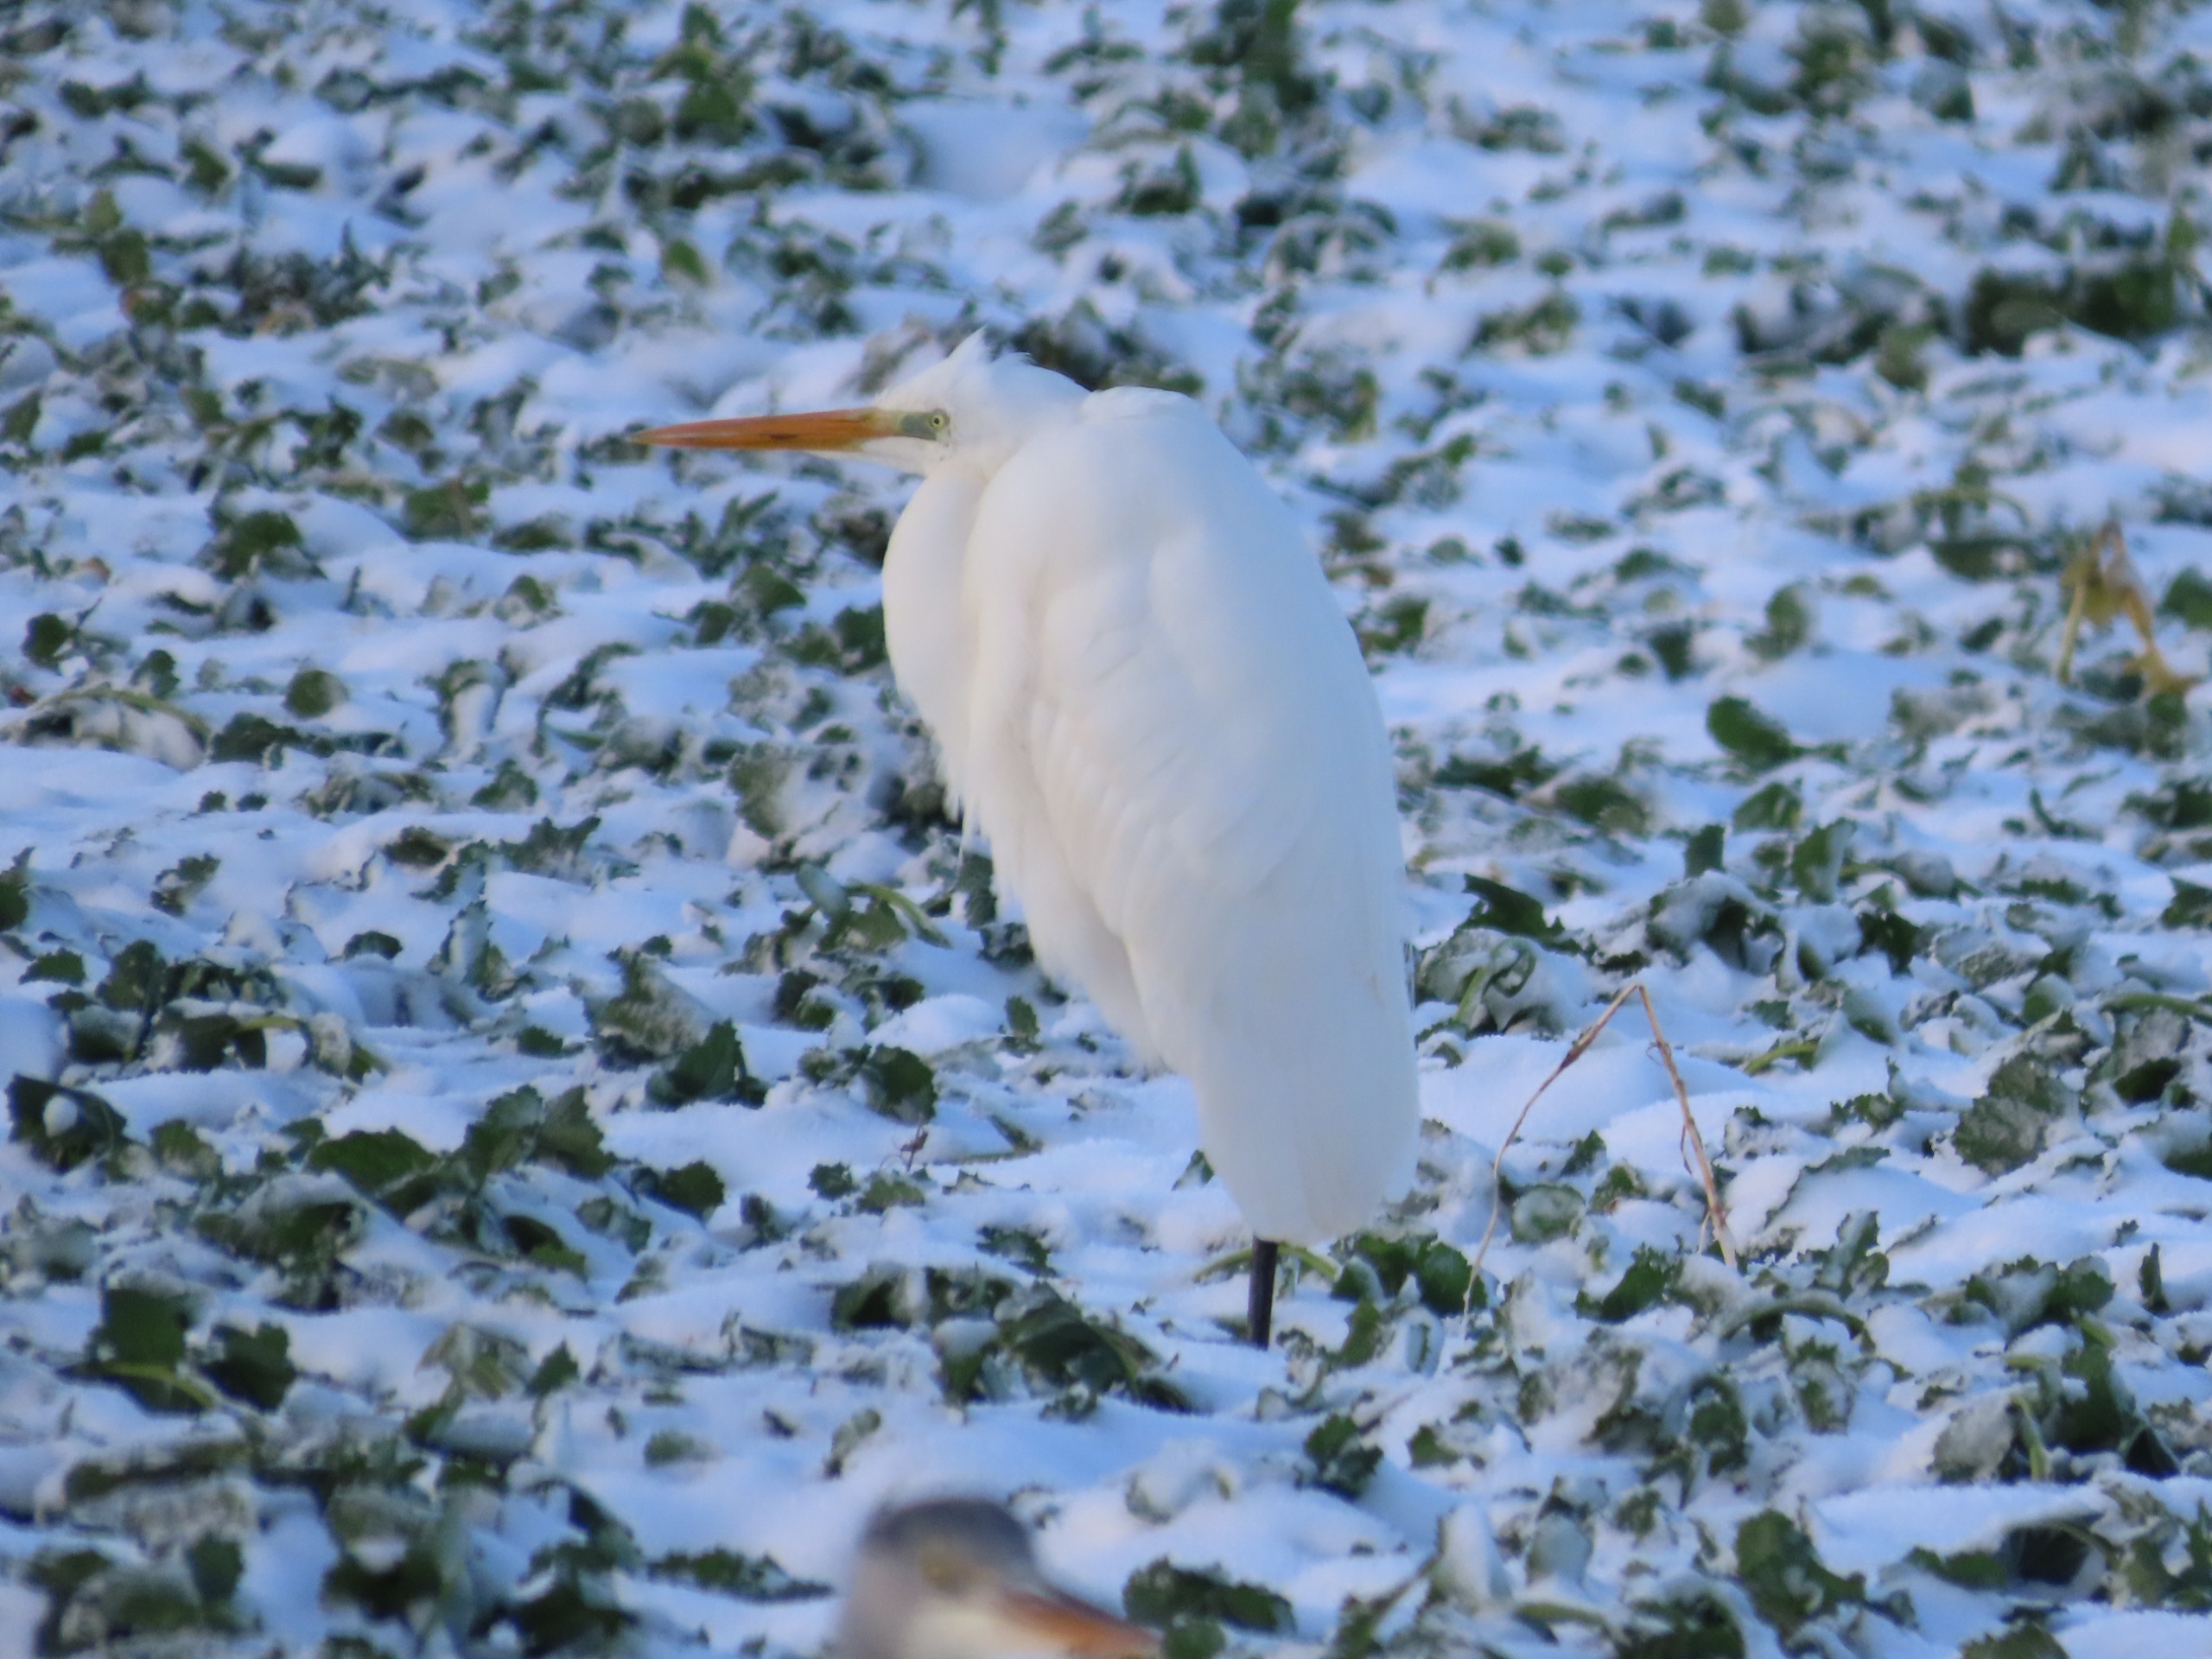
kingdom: Animalia
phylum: Chordata
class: Aves
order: Pelecaniformes
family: Ardeidae
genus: Ardea
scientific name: Ardea alba
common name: Sølvhejre
